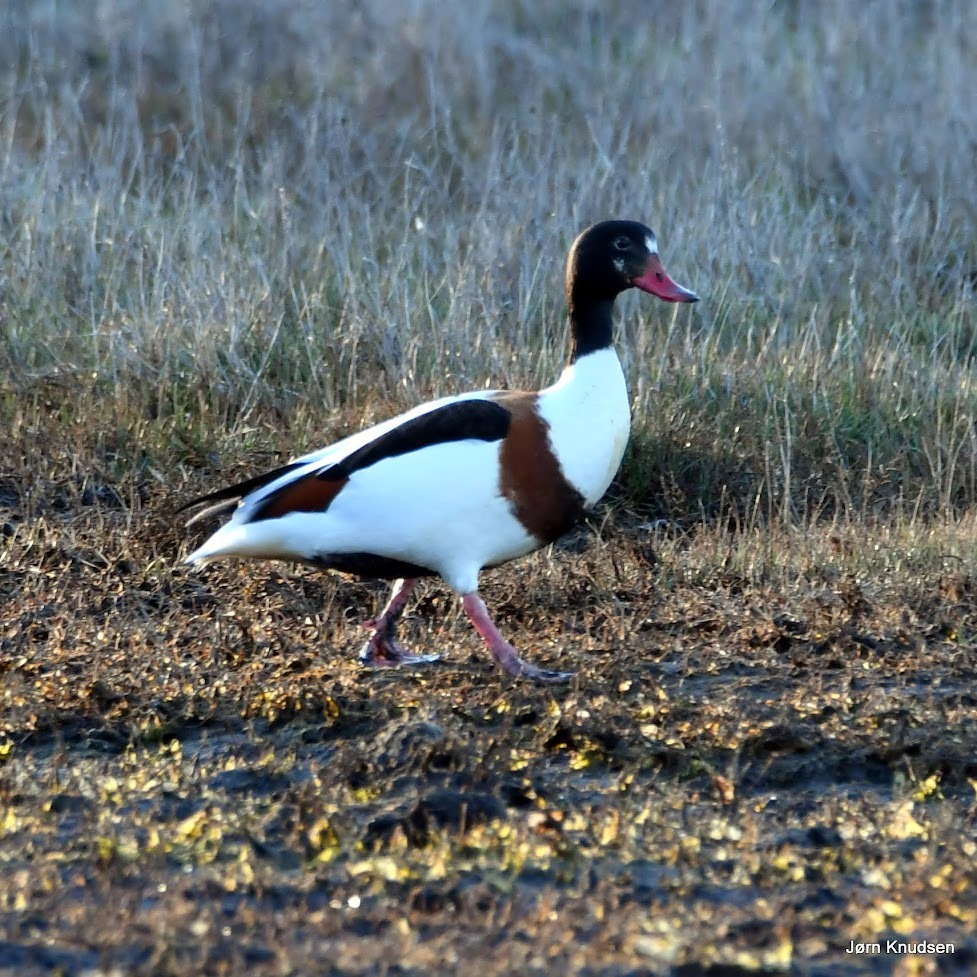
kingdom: Animalia
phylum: Chordata
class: Aves
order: Anseriformes
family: Anatidae
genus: Tadorna
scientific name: Tadorna tadorna
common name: Gravand
